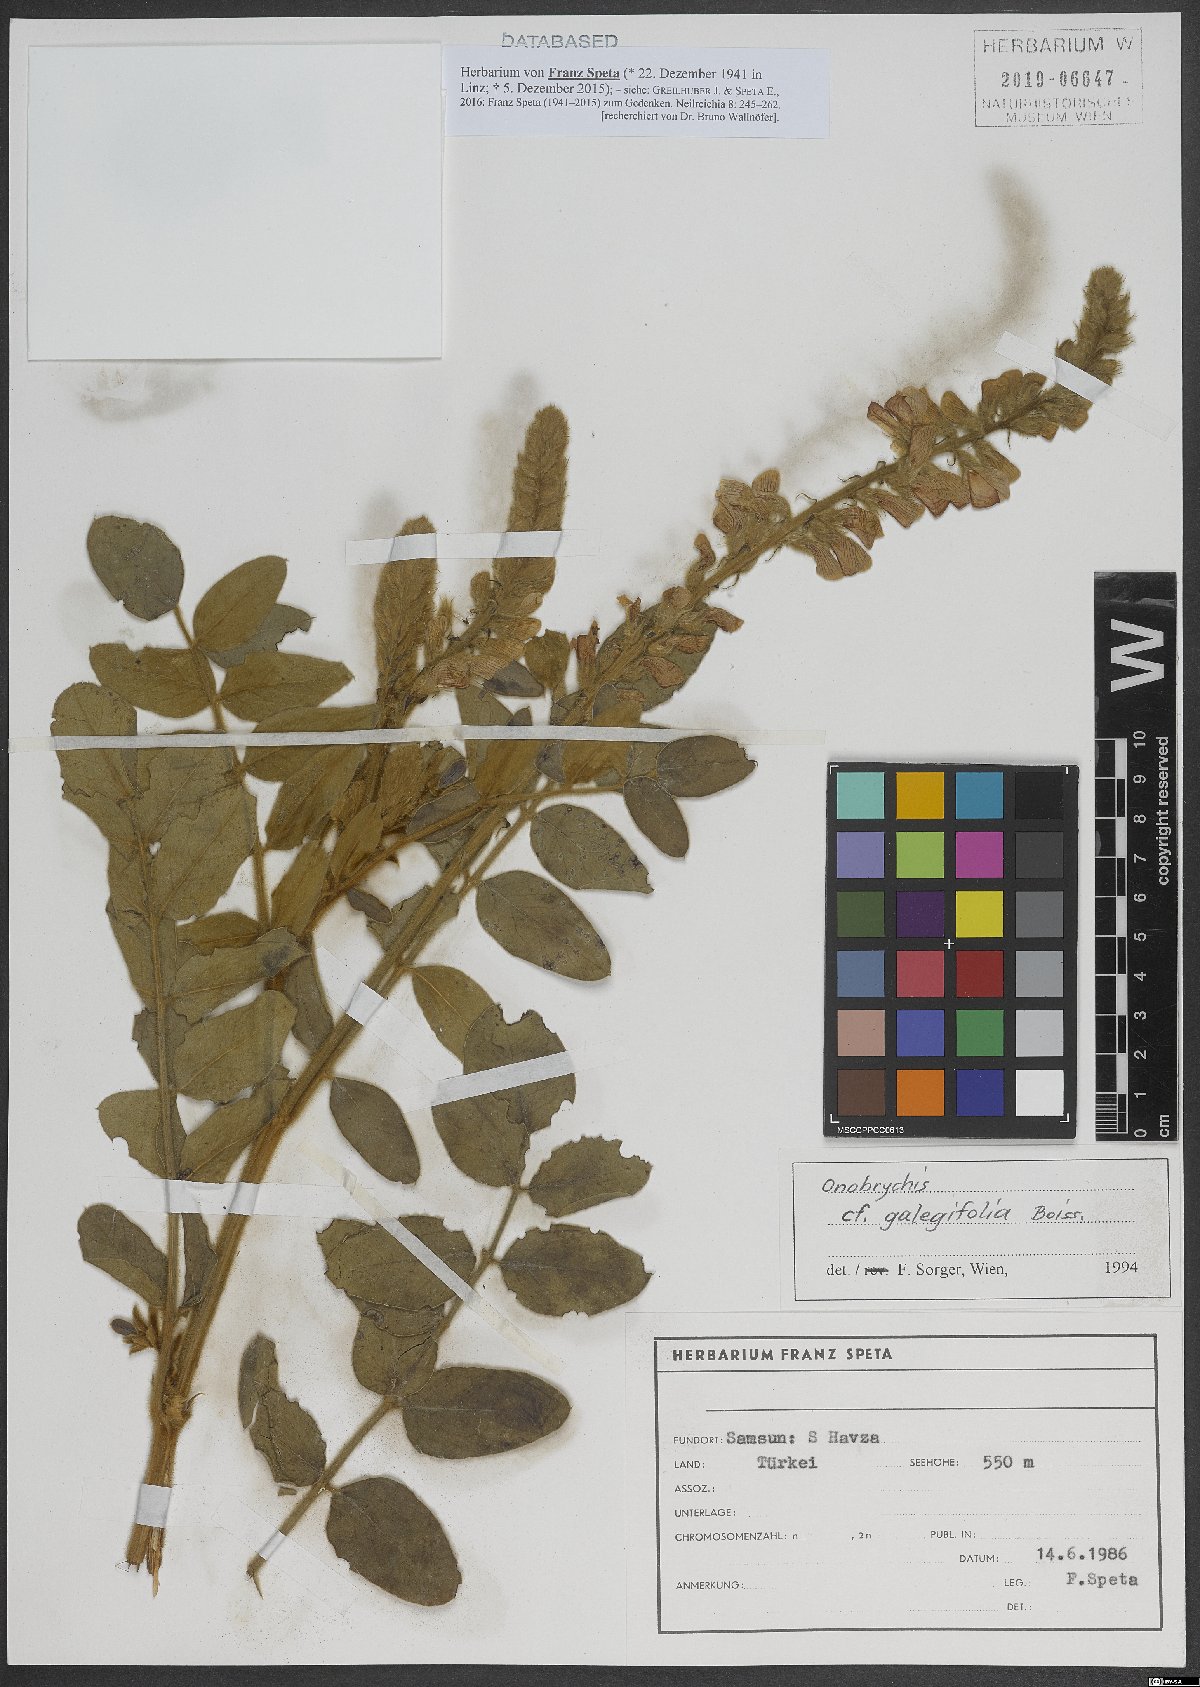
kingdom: Plantae
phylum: Tracheophyta
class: Magnoliopsida
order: Fabales
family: Fabaceae
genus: Onobrychis
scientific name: Onobrychis galegifolia
